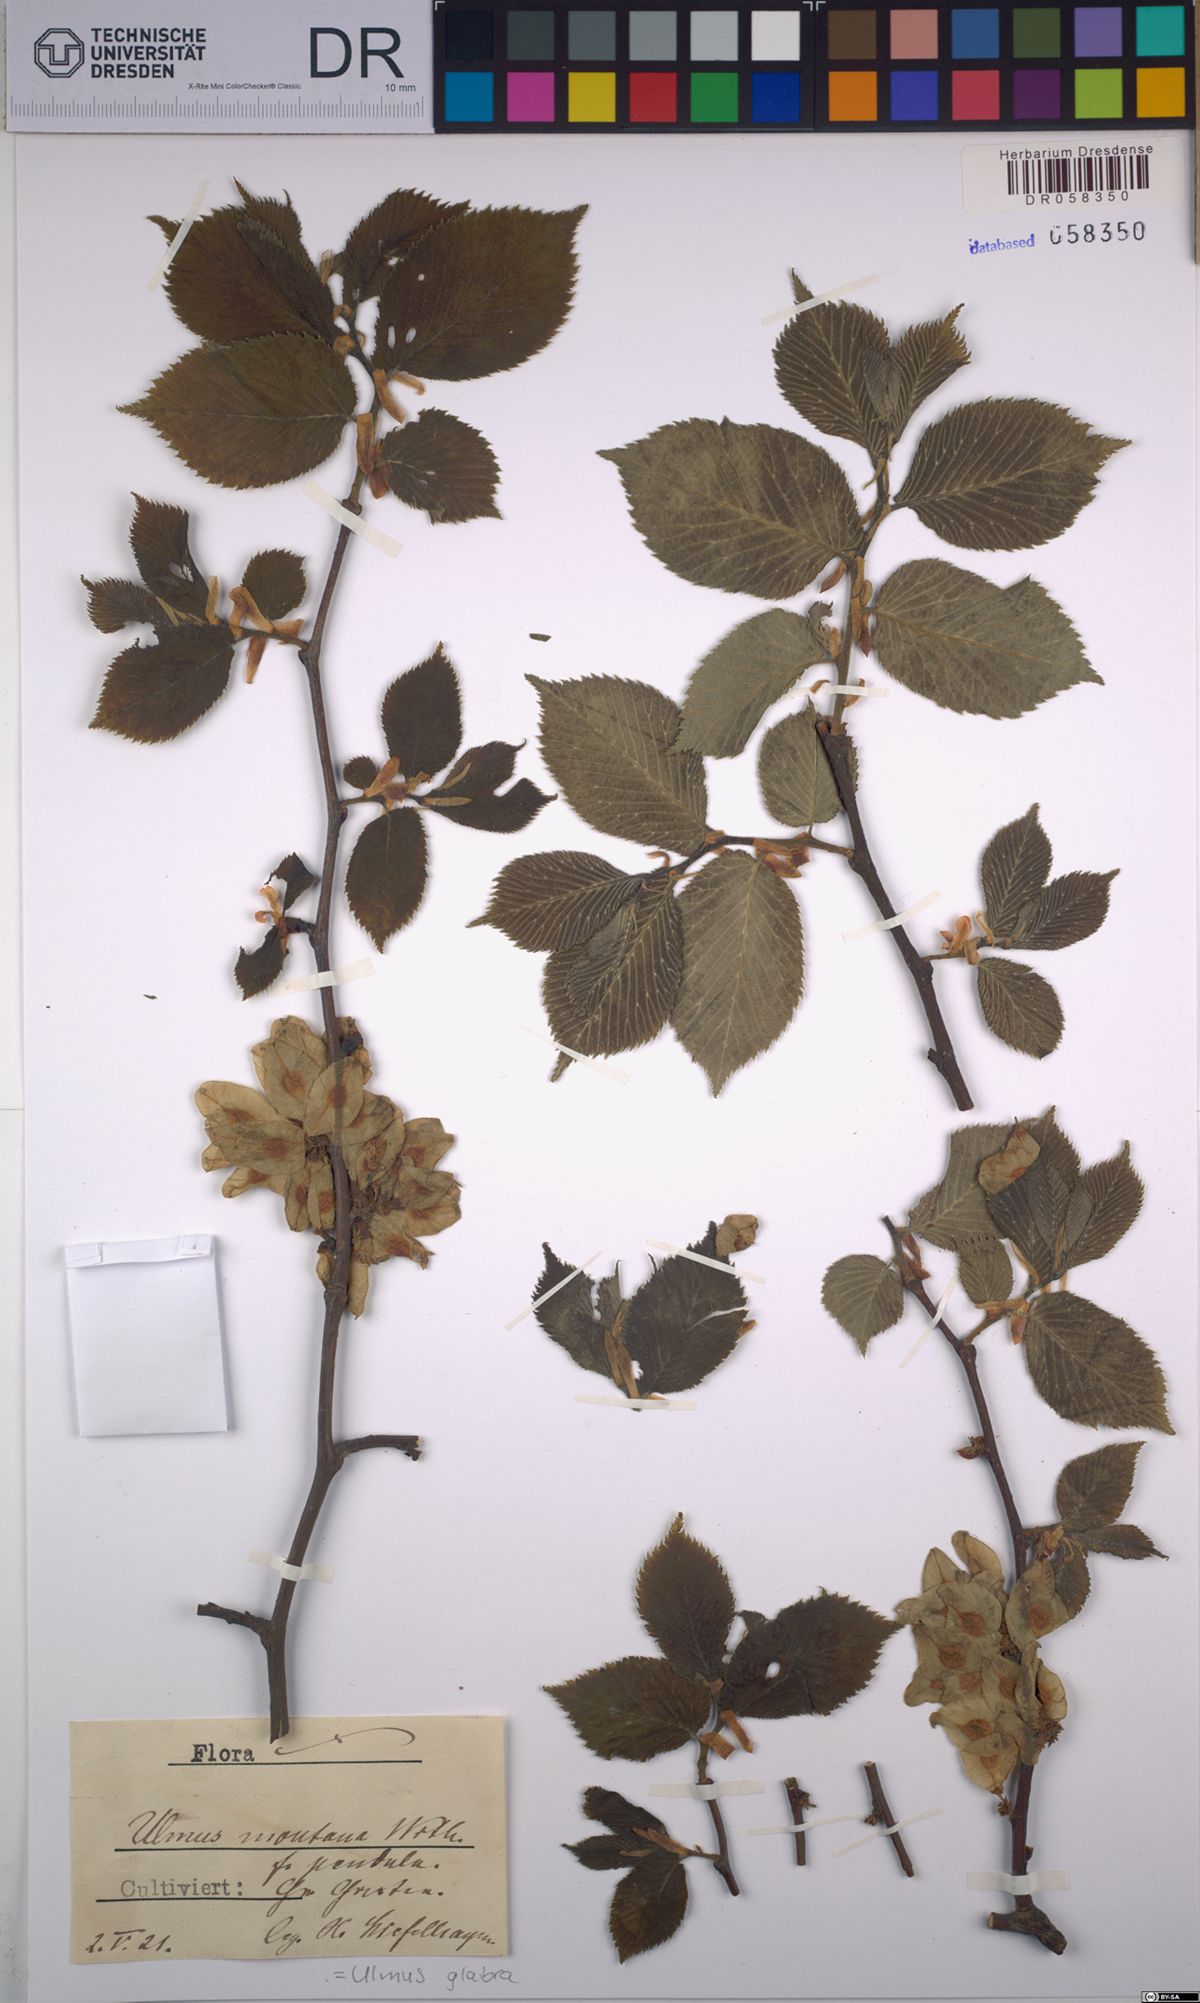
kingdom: Plantae
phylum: Tracheophyta
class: Magnoliopsida
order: Rosales
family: Ulmaceae
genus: Ulmus
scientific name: Ulmus glabra
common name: Wych elm
